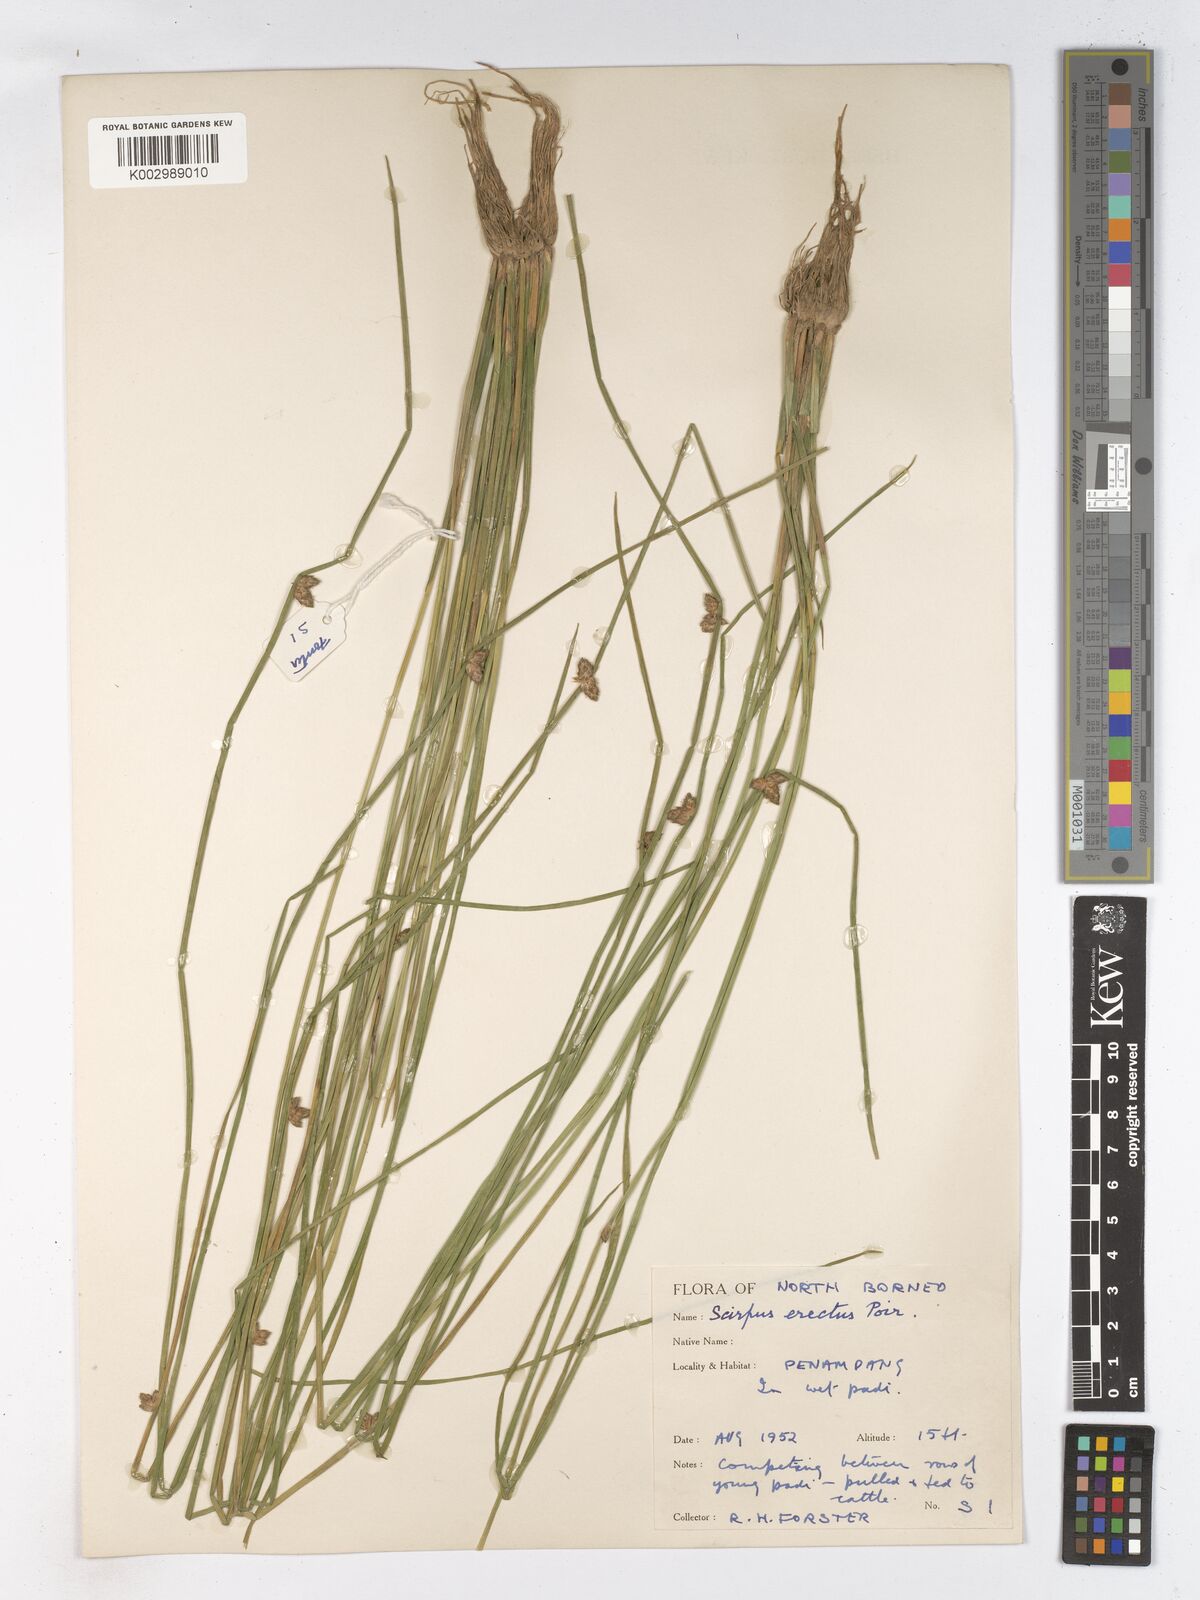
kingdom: Plantae
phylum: Tracheophyta
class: Liliopsida
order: Poales
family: Cyperaceae
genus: Schoenoplectiella
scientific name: Schoenoplectiella juncoides
